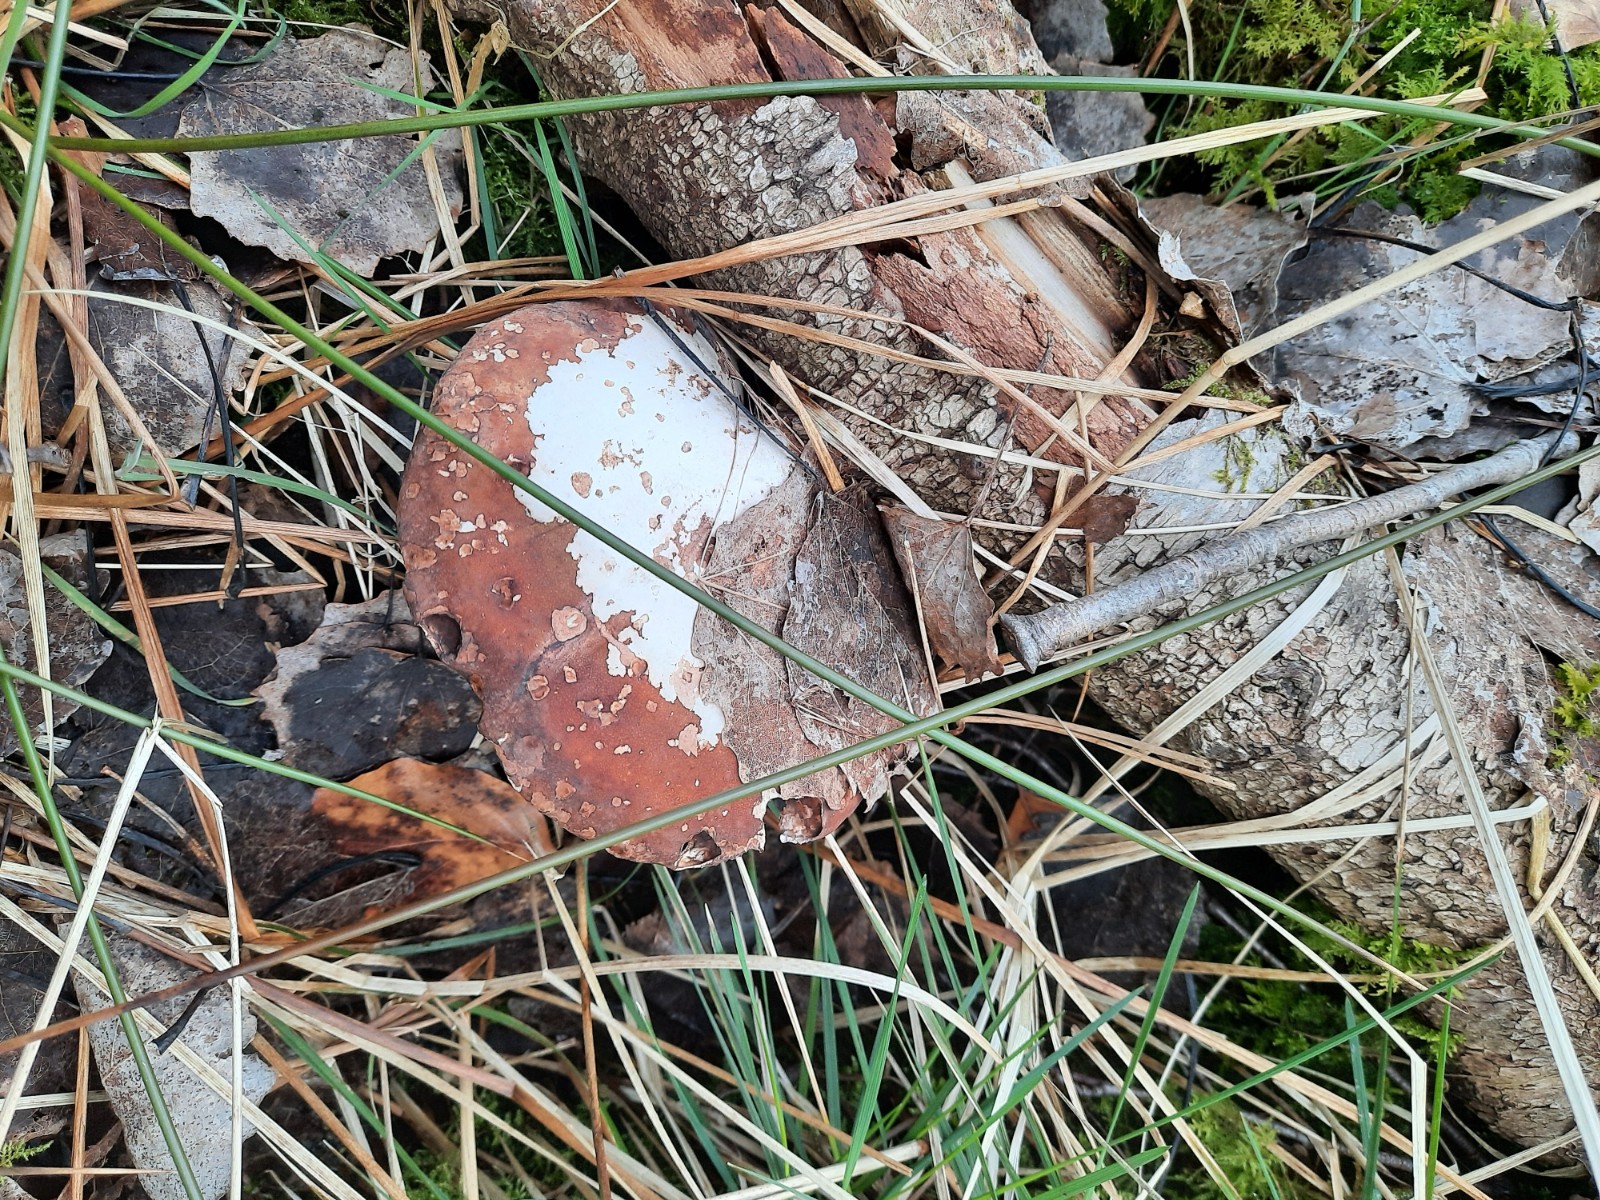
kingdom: Fungi
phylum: Basidiomycota
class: Agaricomycetes
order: Polyporales
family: Fomitopsidaceae
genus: Fomitopsis
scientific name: Fomitopsis betulina
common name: birkeporesvamp
